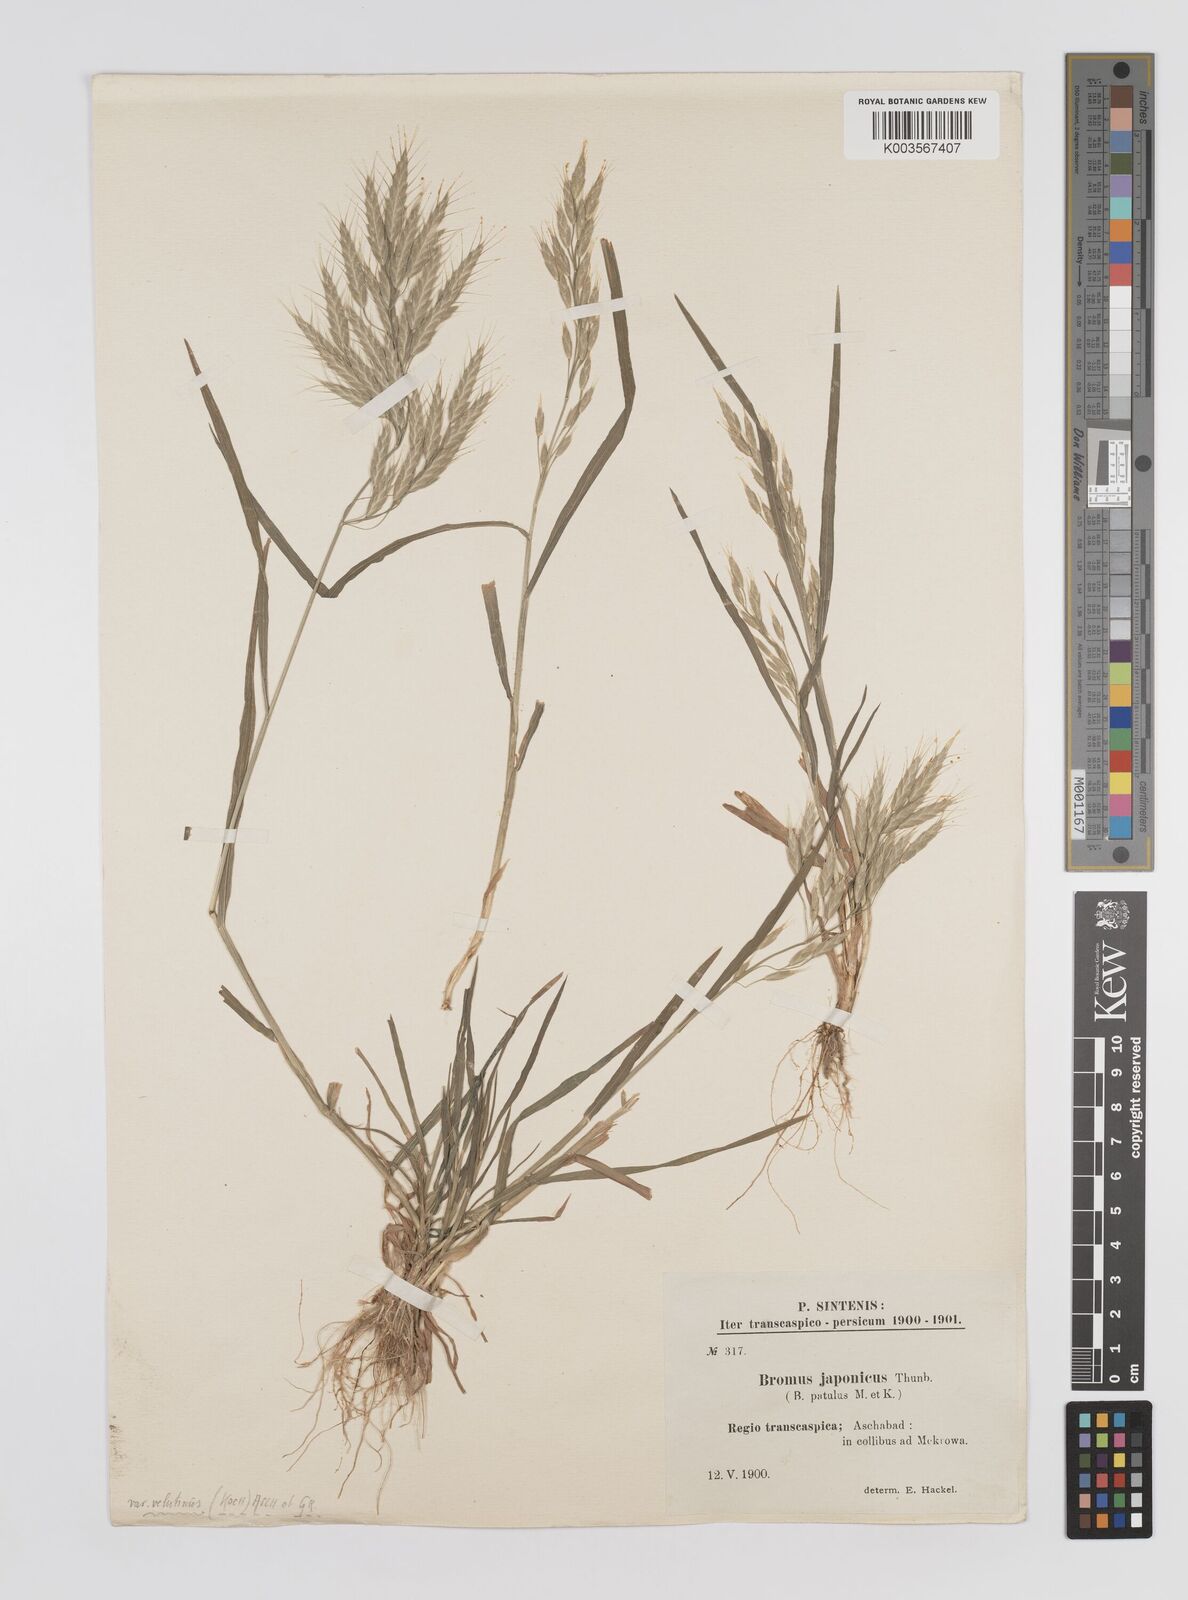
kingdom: Plantae
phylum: Tracheophyta
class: Liliopsida
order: Poales
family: Poaceae
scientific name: Poaceae
